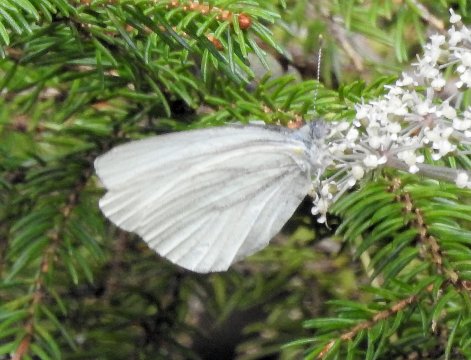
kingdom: Animalia
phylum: Arthropoda
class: Insecta
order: Lepidoptera
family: Pieridae
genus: Pieris
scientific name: Pieris oleracea
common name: Mustard White
